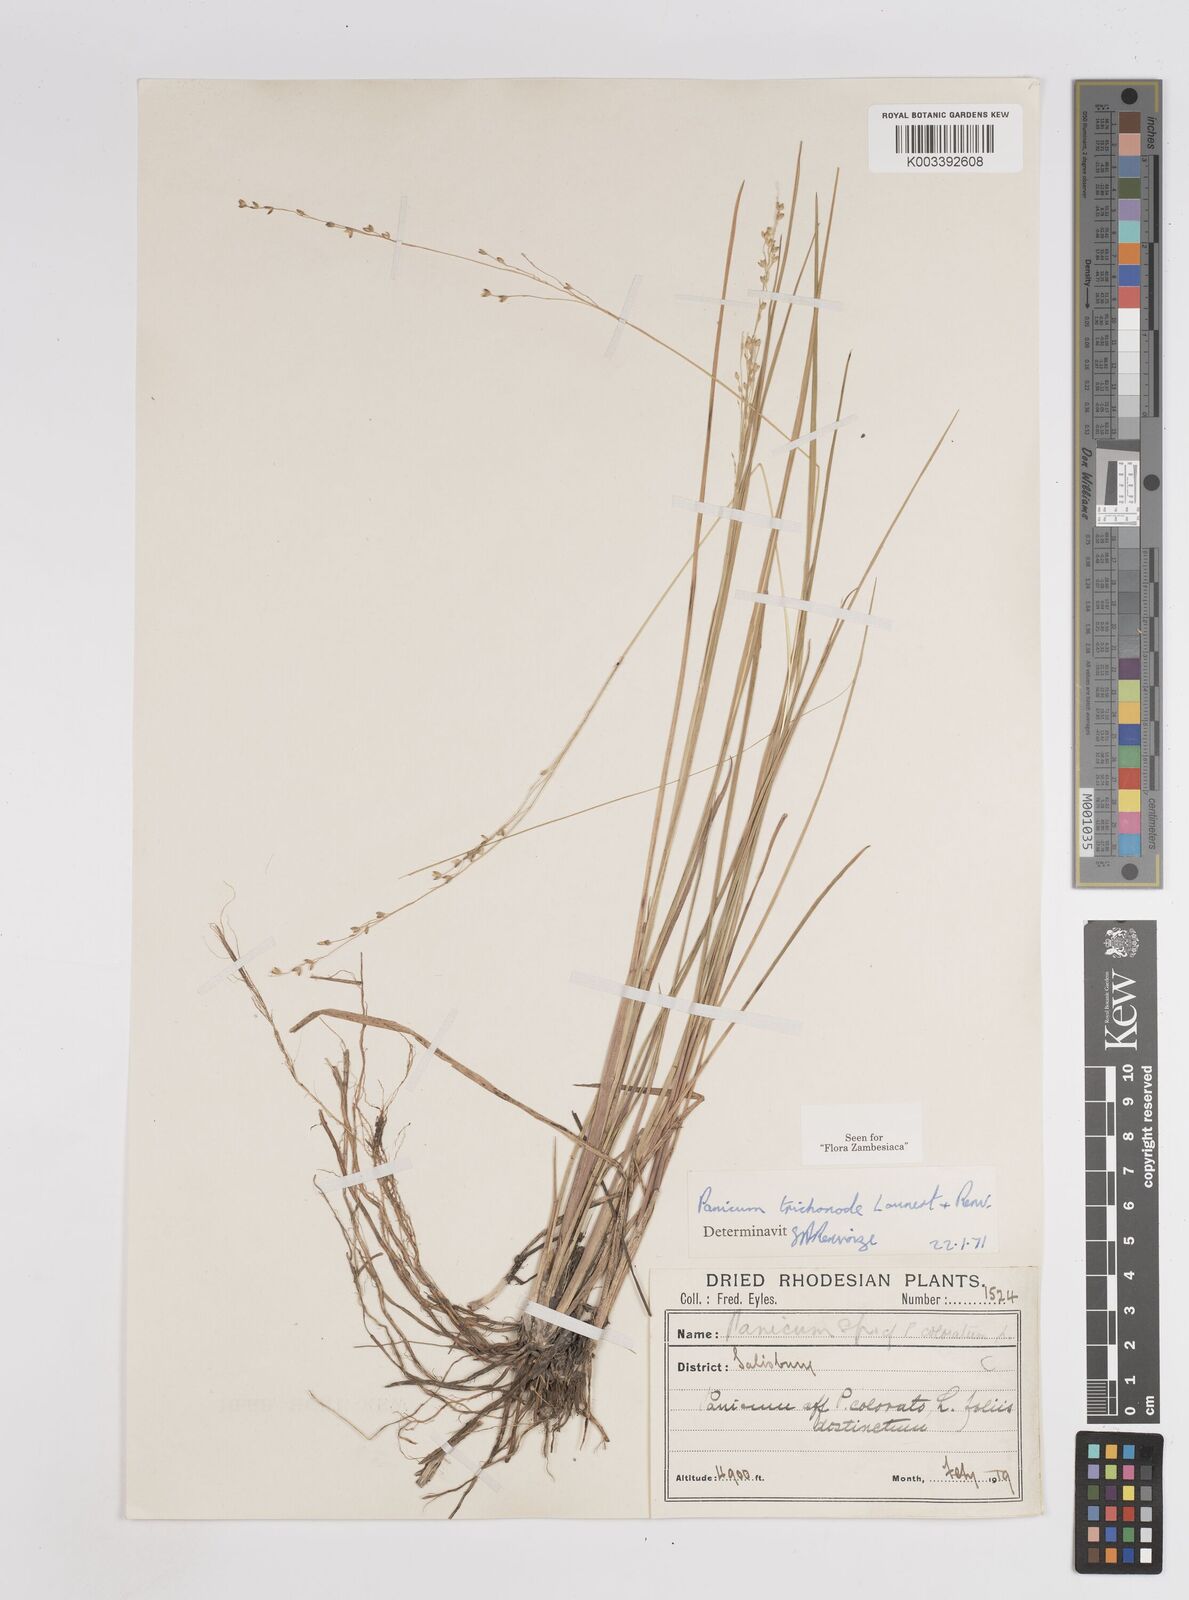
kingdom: Plantae
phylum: Tracheophyta
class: Liliopsida
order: Poales
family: Poaceae
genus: Panicum
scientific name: Panicum trichonode
